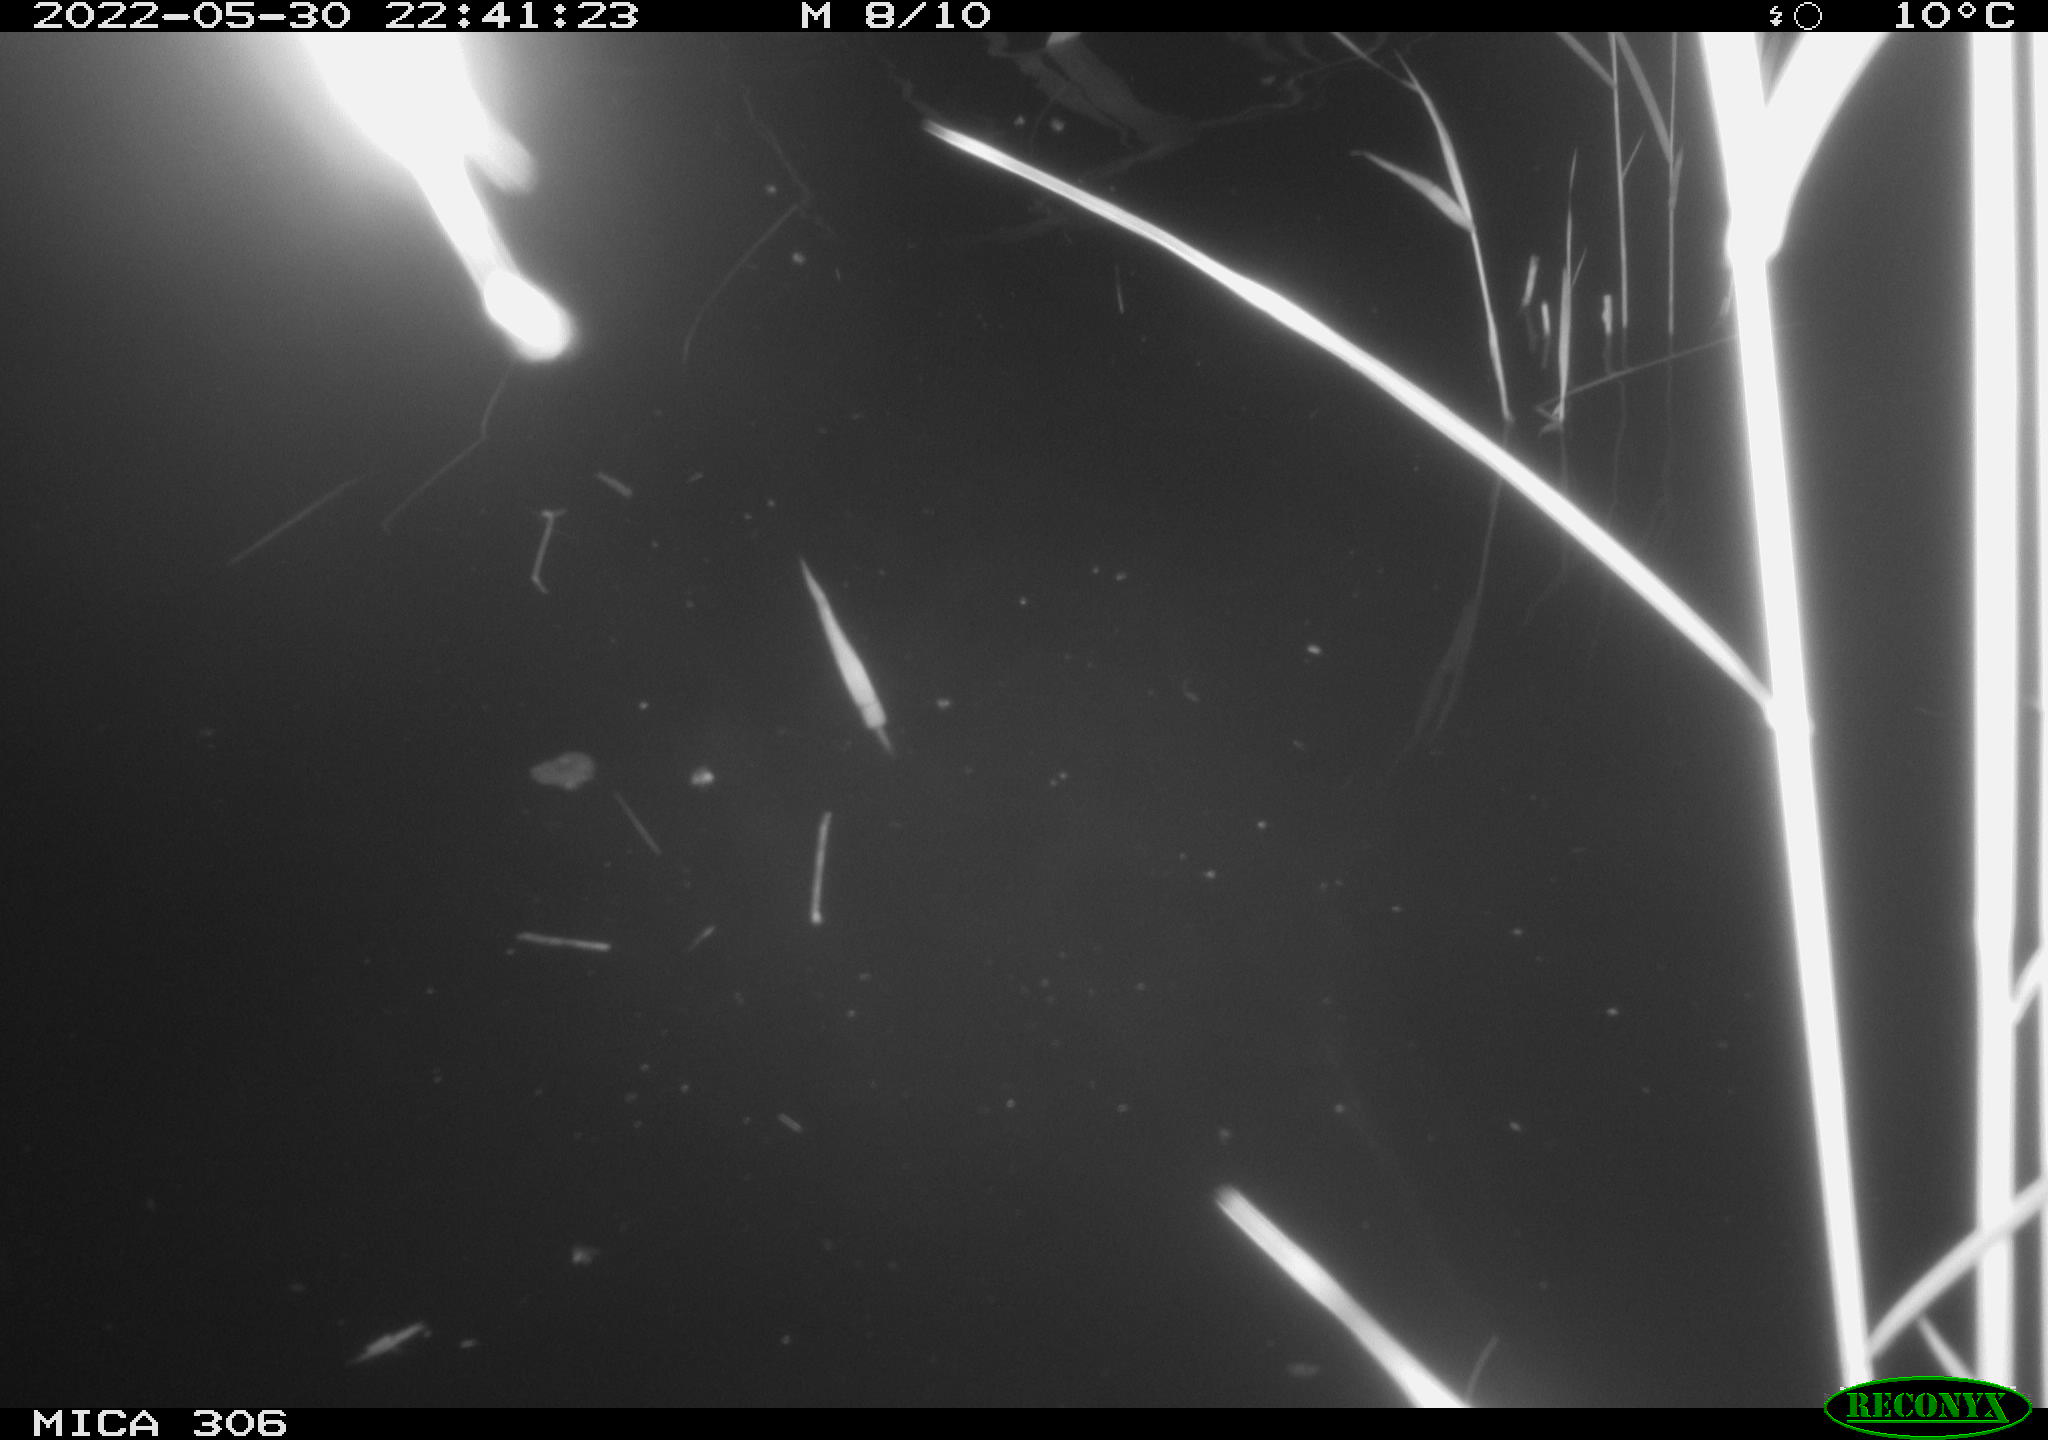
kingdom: Animalia
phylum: Chordata
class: Aves
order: Anseriformes
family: Anatidae
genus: Anas
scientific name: Anas platyrhynchos
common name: Mallard
